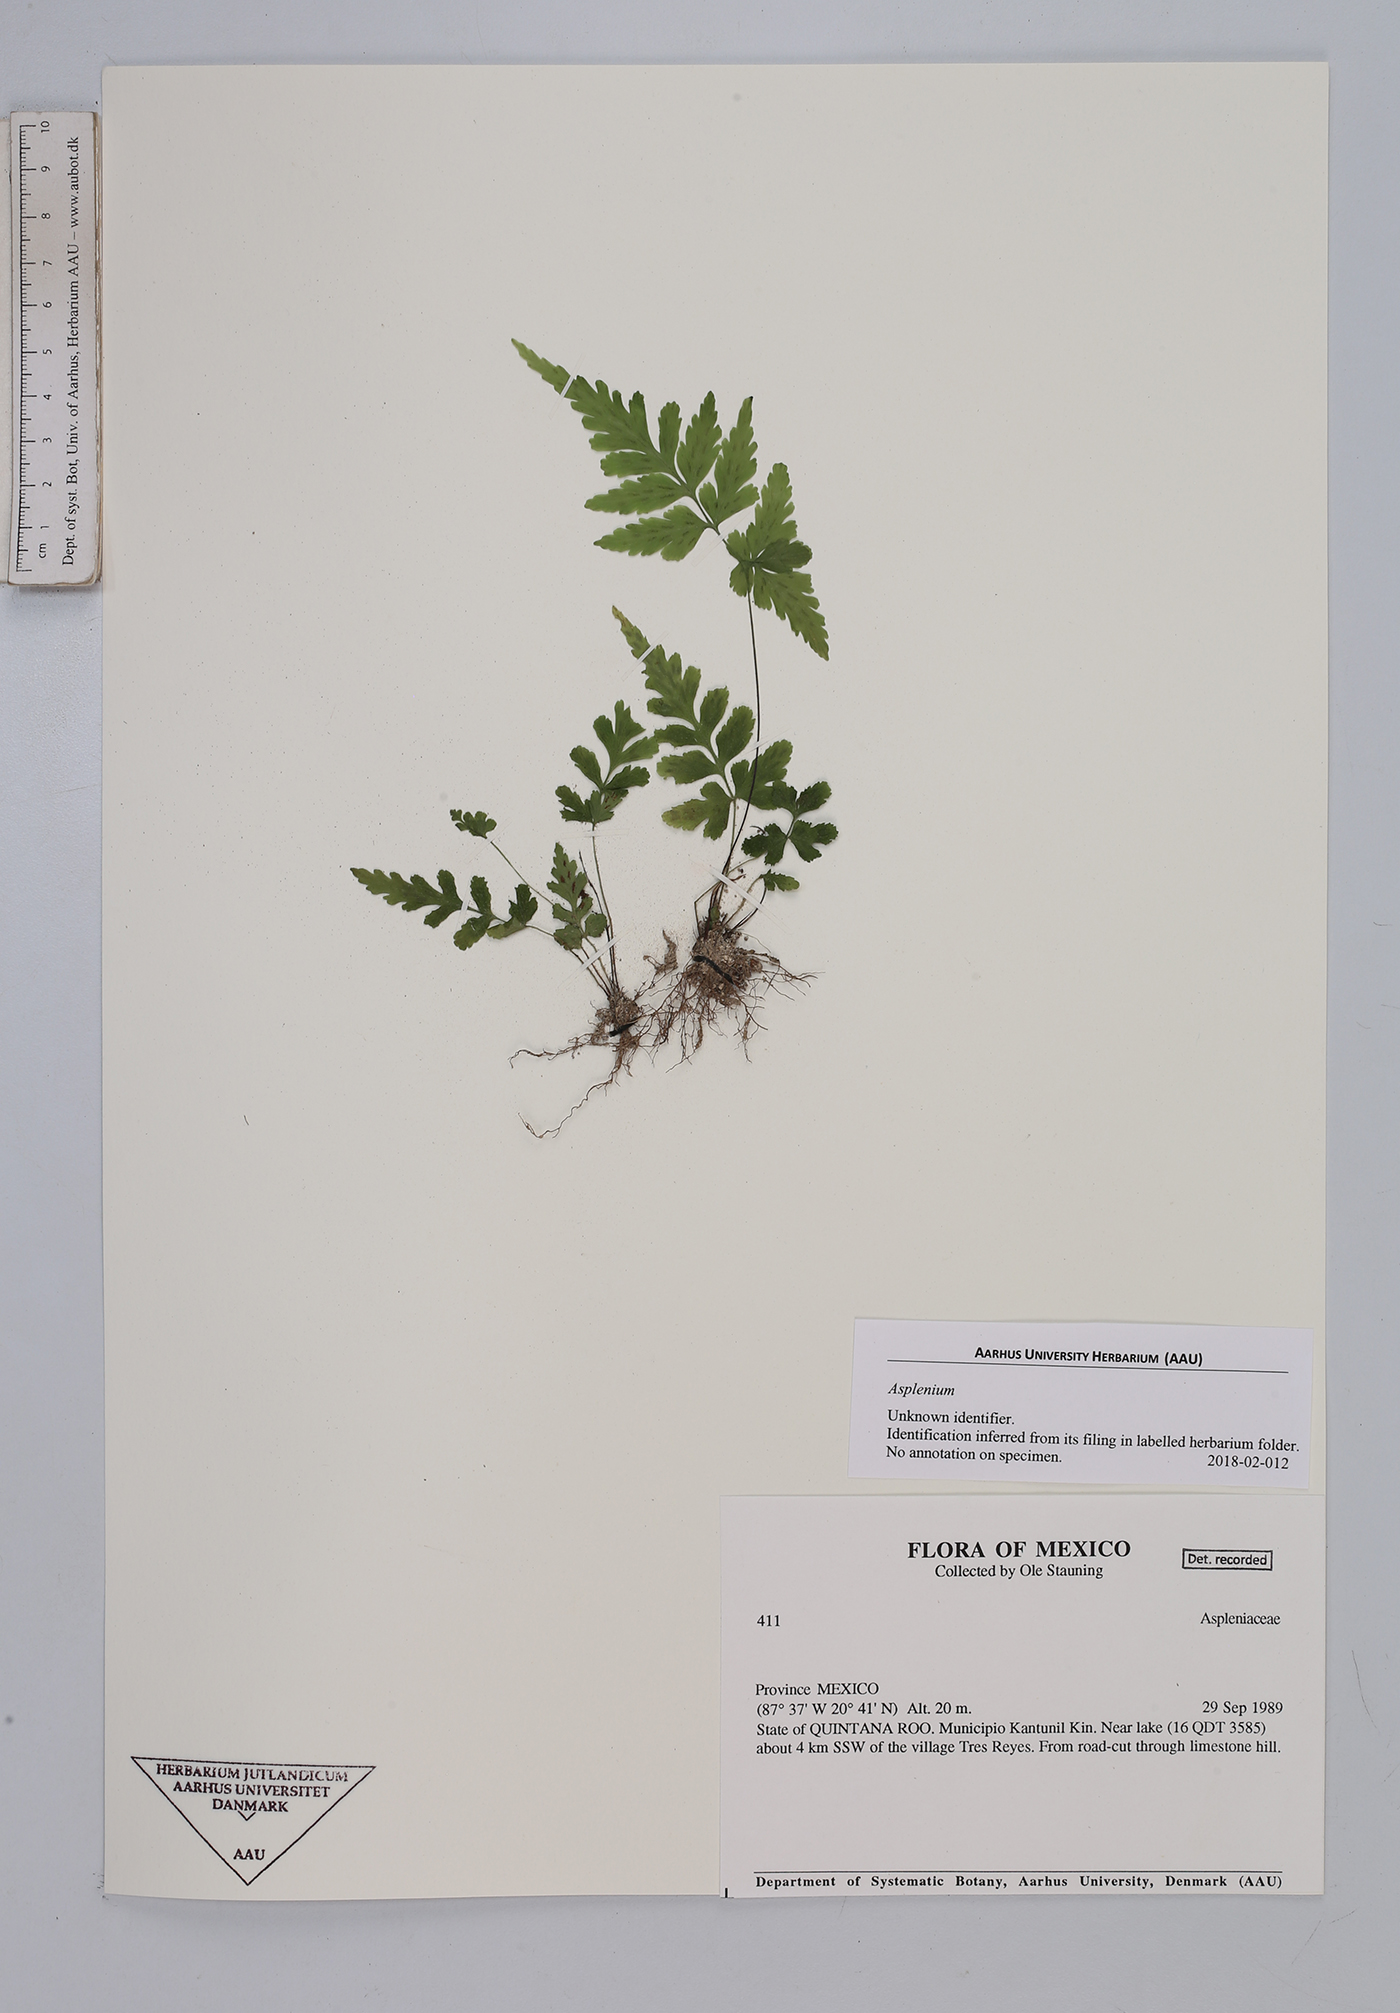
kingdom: Plantae
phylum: Tracheophyta
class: Polypodiopsida
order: Polypodiales
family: Aspleniaceae
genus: Asplenium
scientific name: Asplenium
